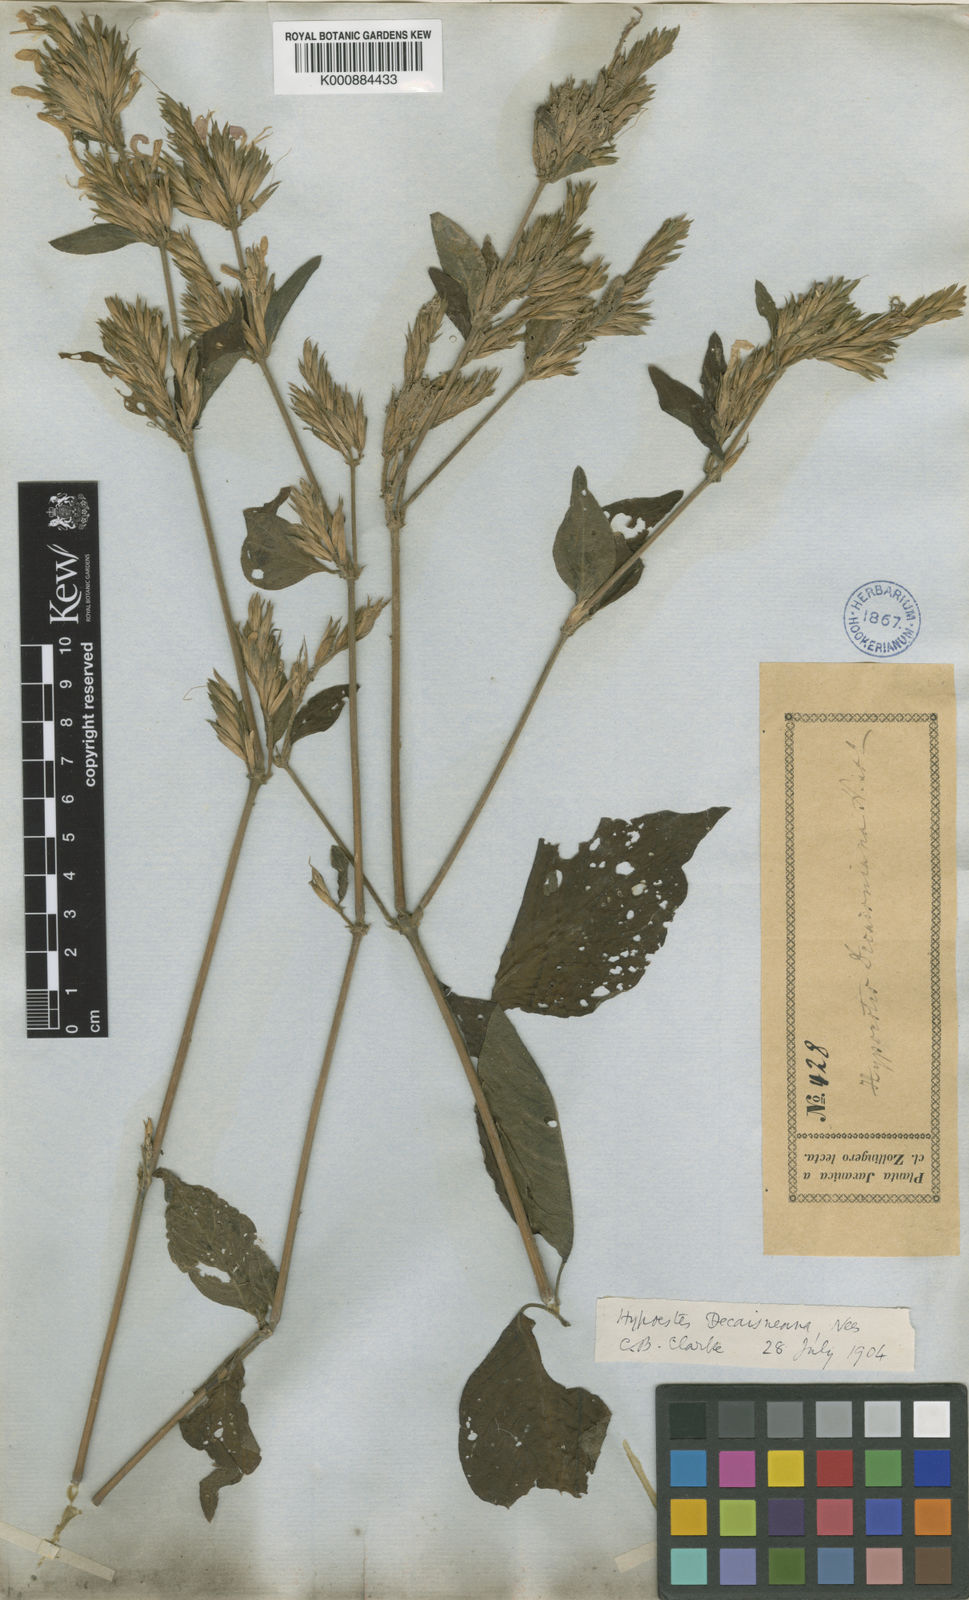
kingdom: Plantae
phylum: Tracheophyta
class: Magnoliopsida
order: Lamiales
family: Acanthaceae
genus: Hypoestes
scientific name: Hypoestes decaisneana
